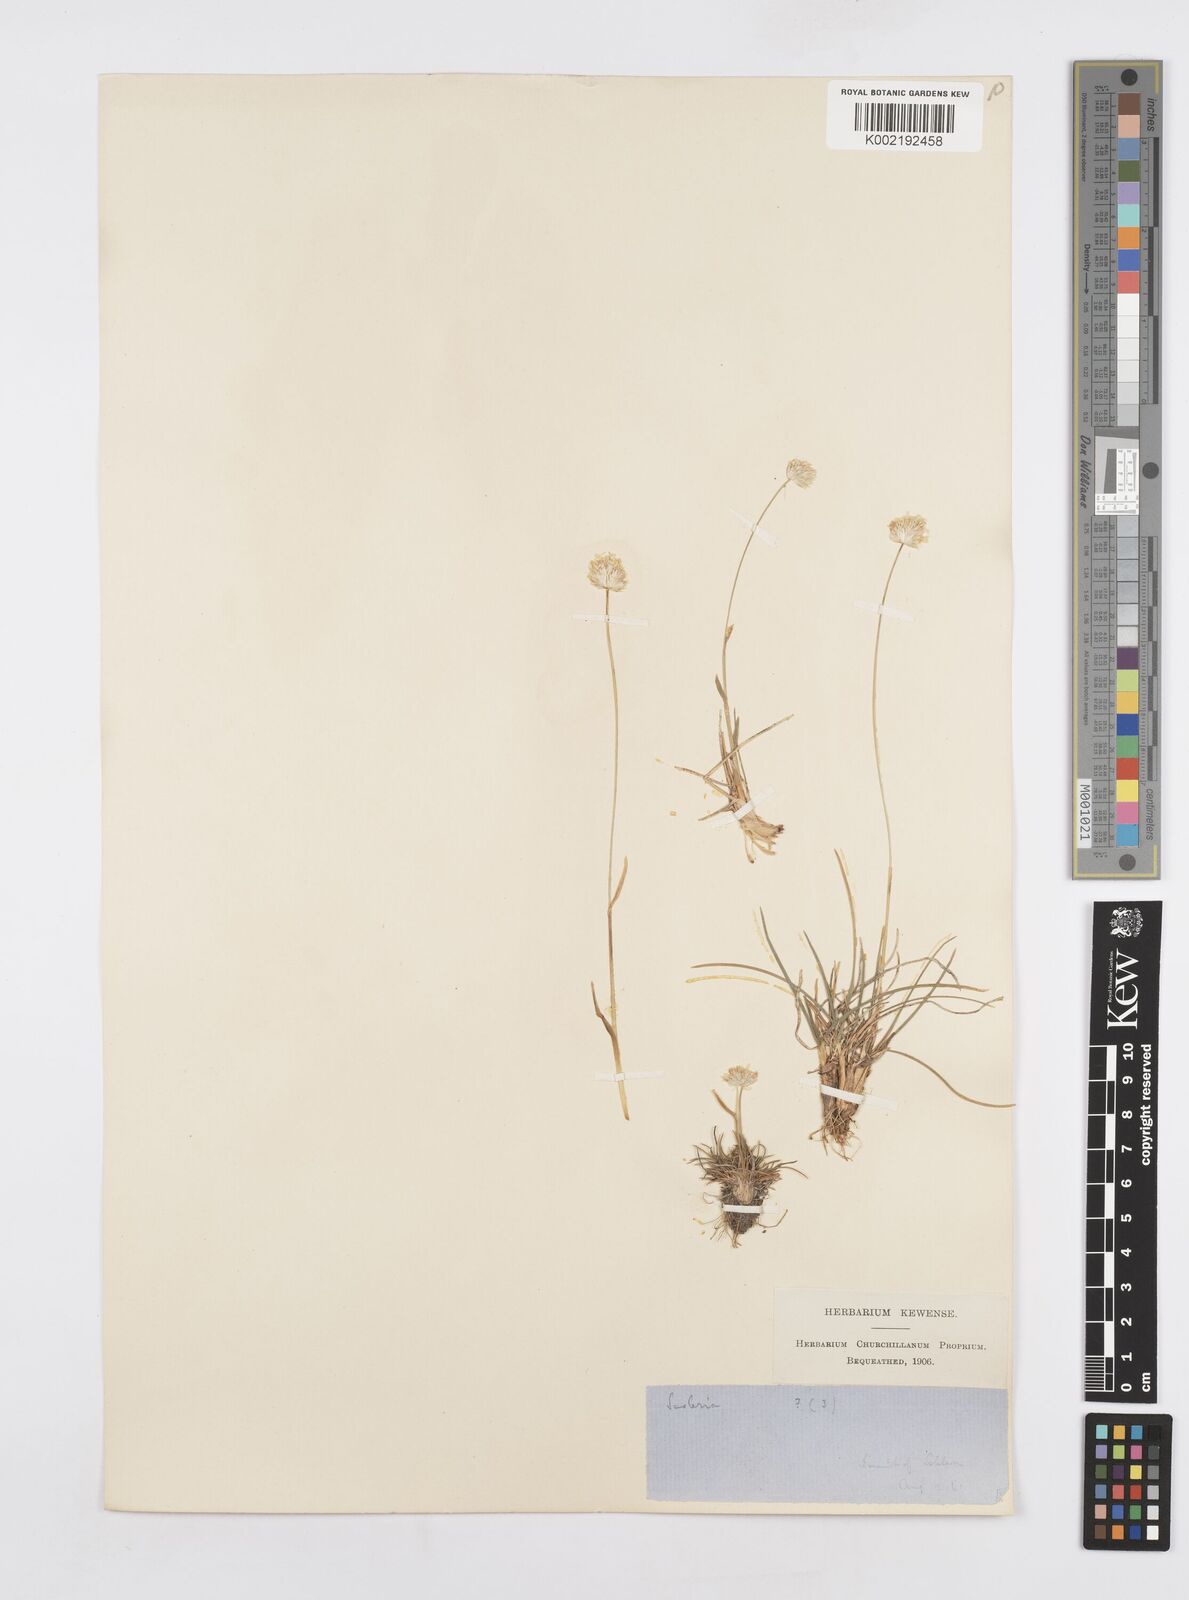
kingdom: Plantae
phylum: Tracheophyta
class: Liliopsida
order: Poales
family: Poaceae
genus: Sesleriella
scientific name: Sesleriella sphaerocephala
